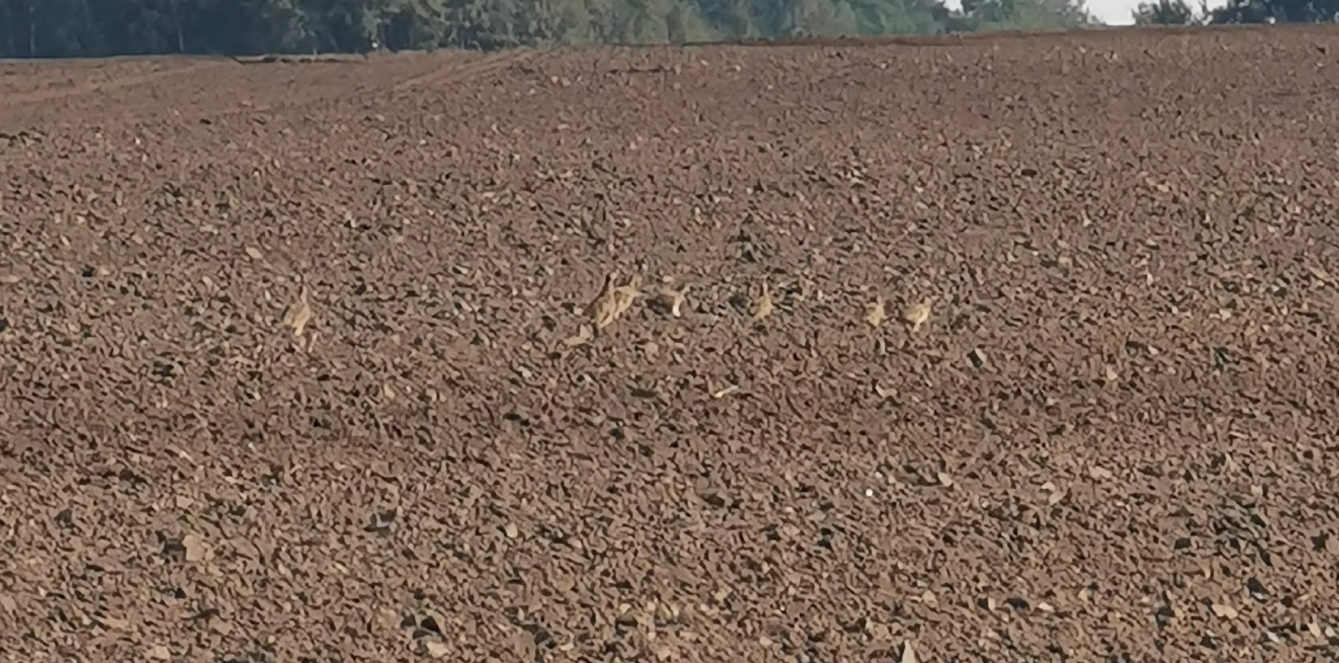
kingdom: Animalia
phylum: Chordata
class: Aves
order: Galliformes
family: Phasianidae
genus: Perdix
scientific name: Perdix perdix
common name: Agerhøne
